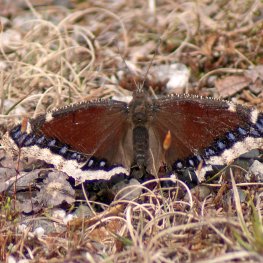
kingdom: Animalia
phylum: Arthropoda
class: Insecta
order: Lepidoptera
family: Nymphalidae
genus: Nymphalis
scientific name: Nymphalis antiopa
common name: Mourning Cloak
